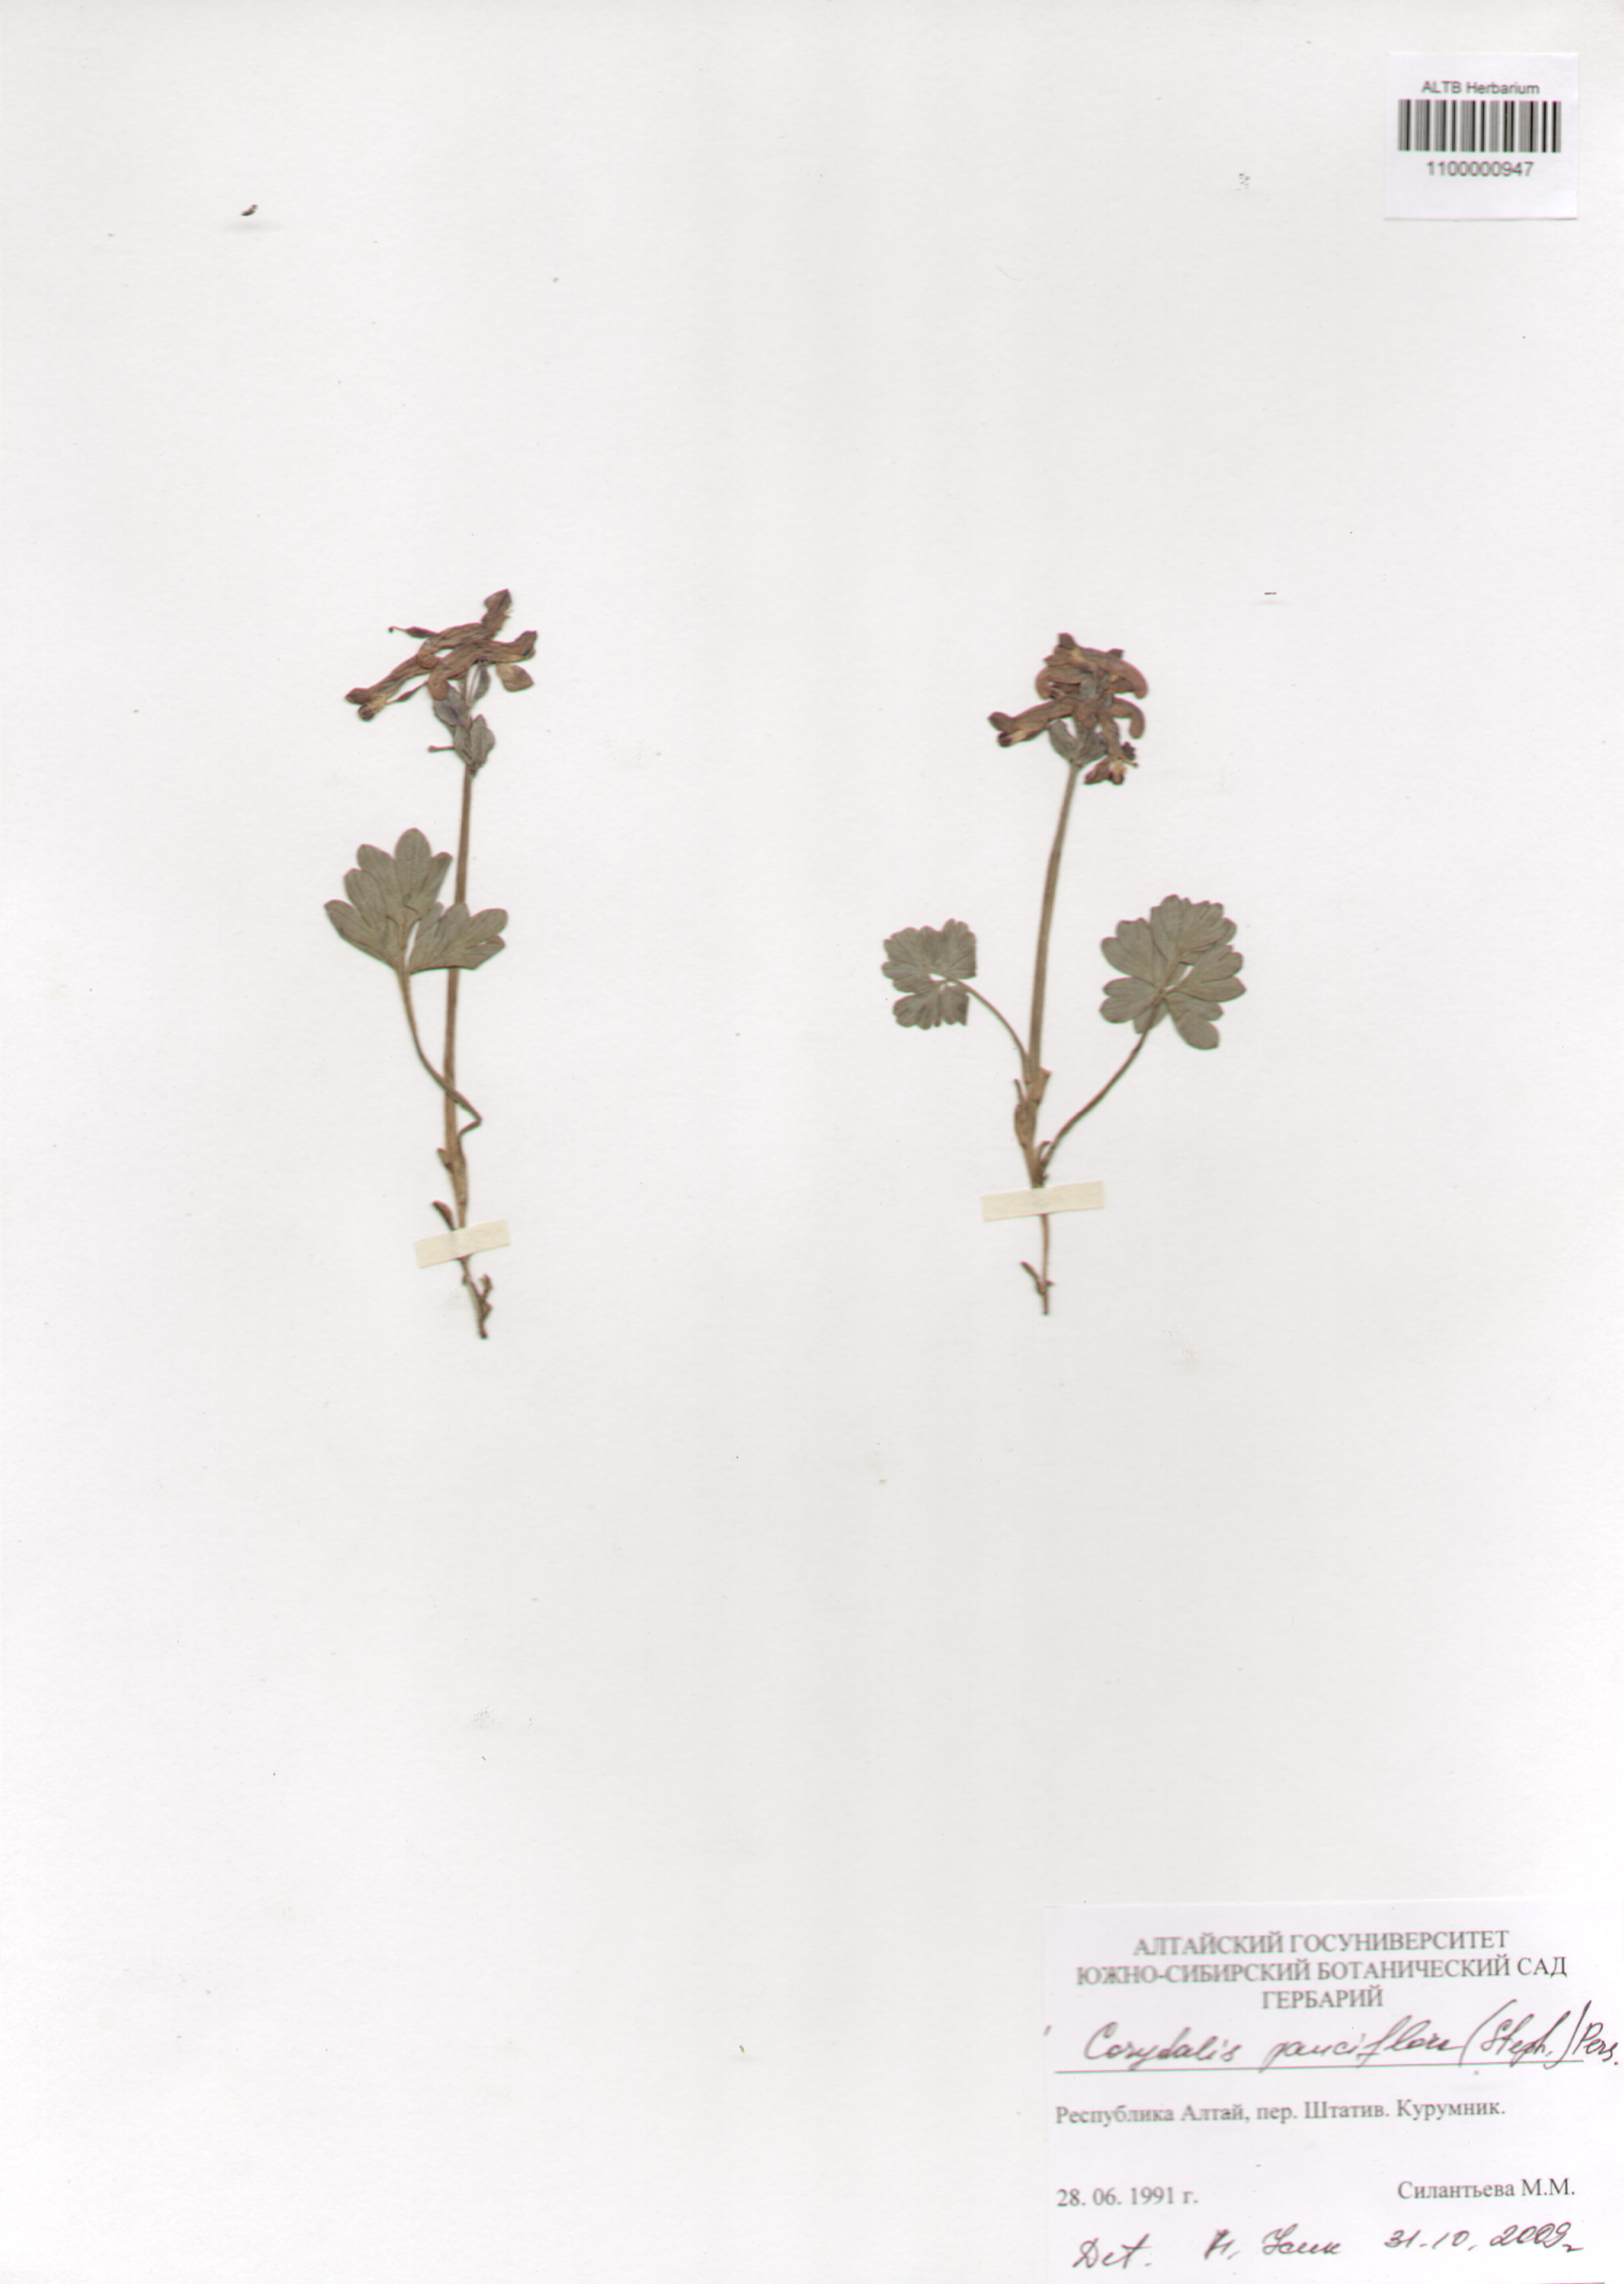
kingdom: Plantae
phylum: Tracheophyta
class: Magnoliopsida
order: Ranunculales
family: Papaveraceae
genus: Corydalis
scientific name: Corydalis pauciflora
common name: Blue corydalis
